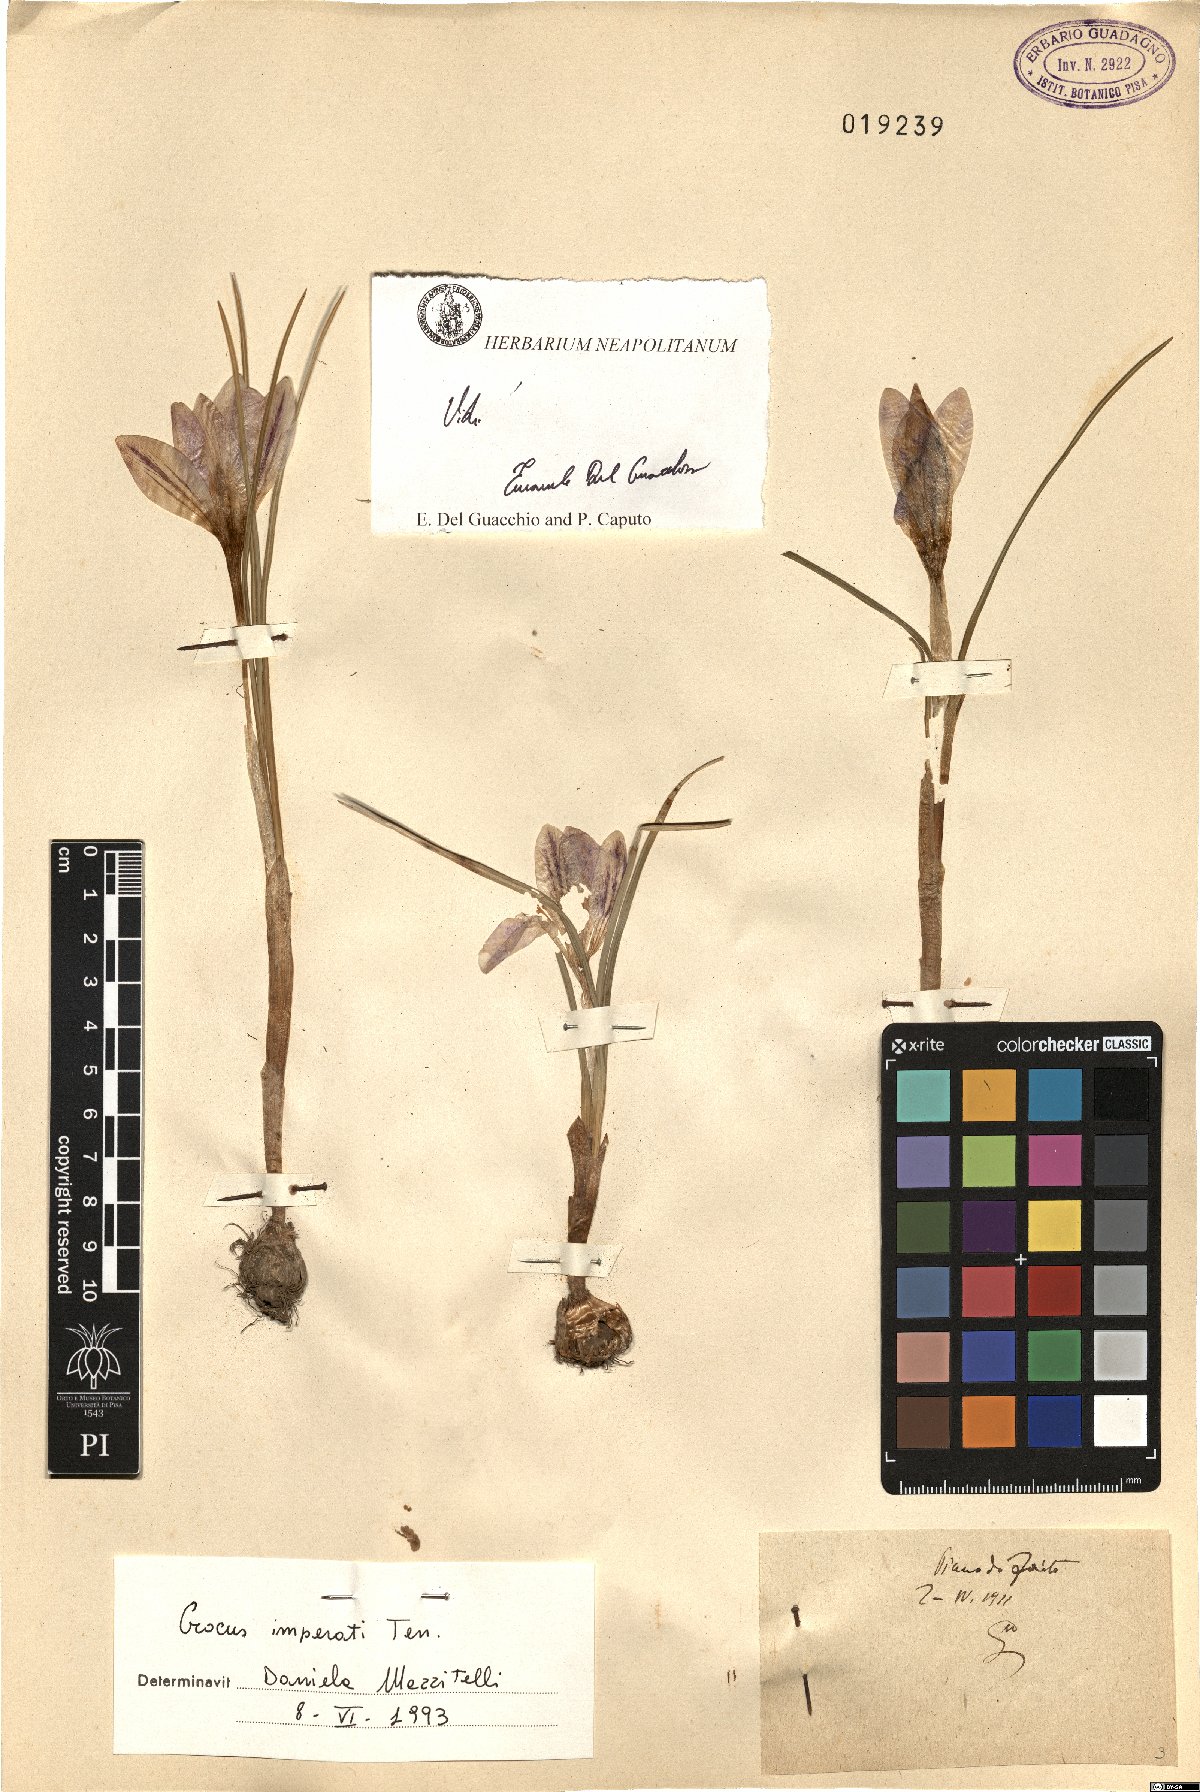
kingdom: Plantae
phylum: Tracheophyta
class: Liliopsida
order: Asparagales
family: Iridaceae
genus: Crocus
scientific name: Crocus imperati
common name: Early crocus
